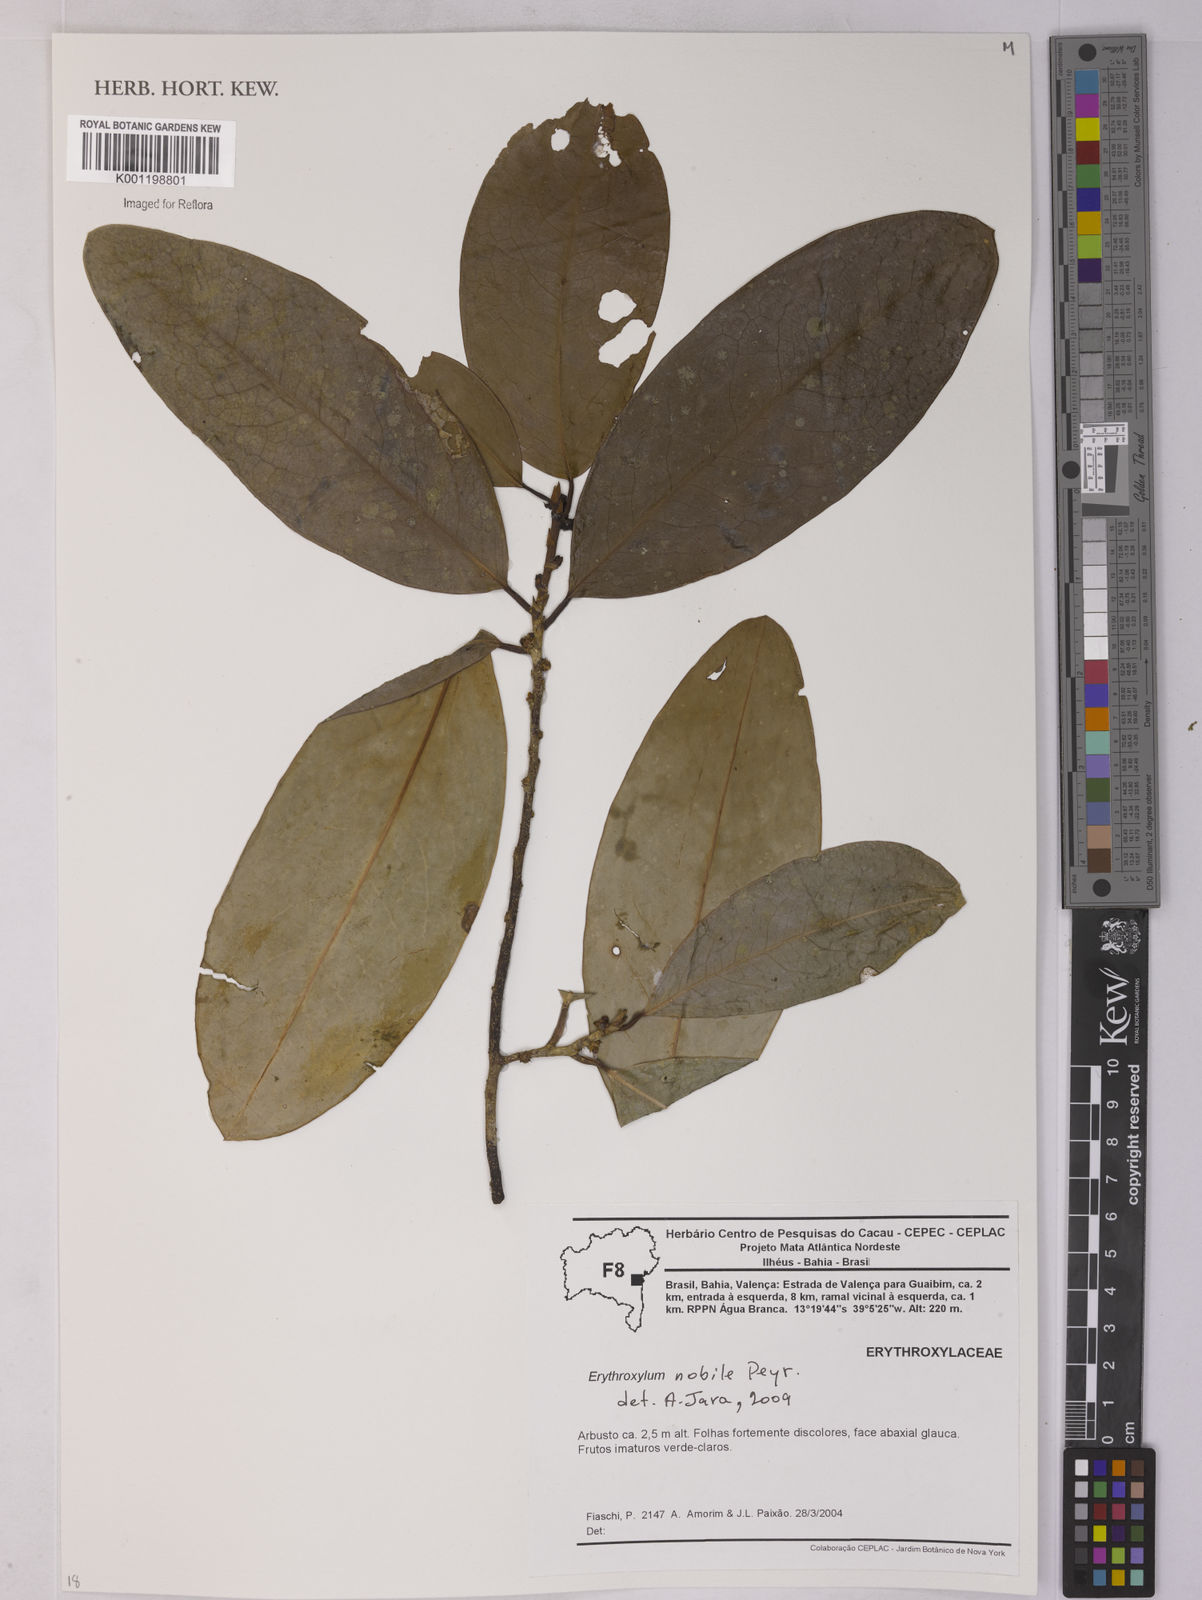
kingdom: Plantae
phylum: Tracheophyta
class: Magnoliopsida
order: Malpighiales
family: Erythroxylaceae
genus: Erythroxylum
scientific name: Erythroxylum nobile
